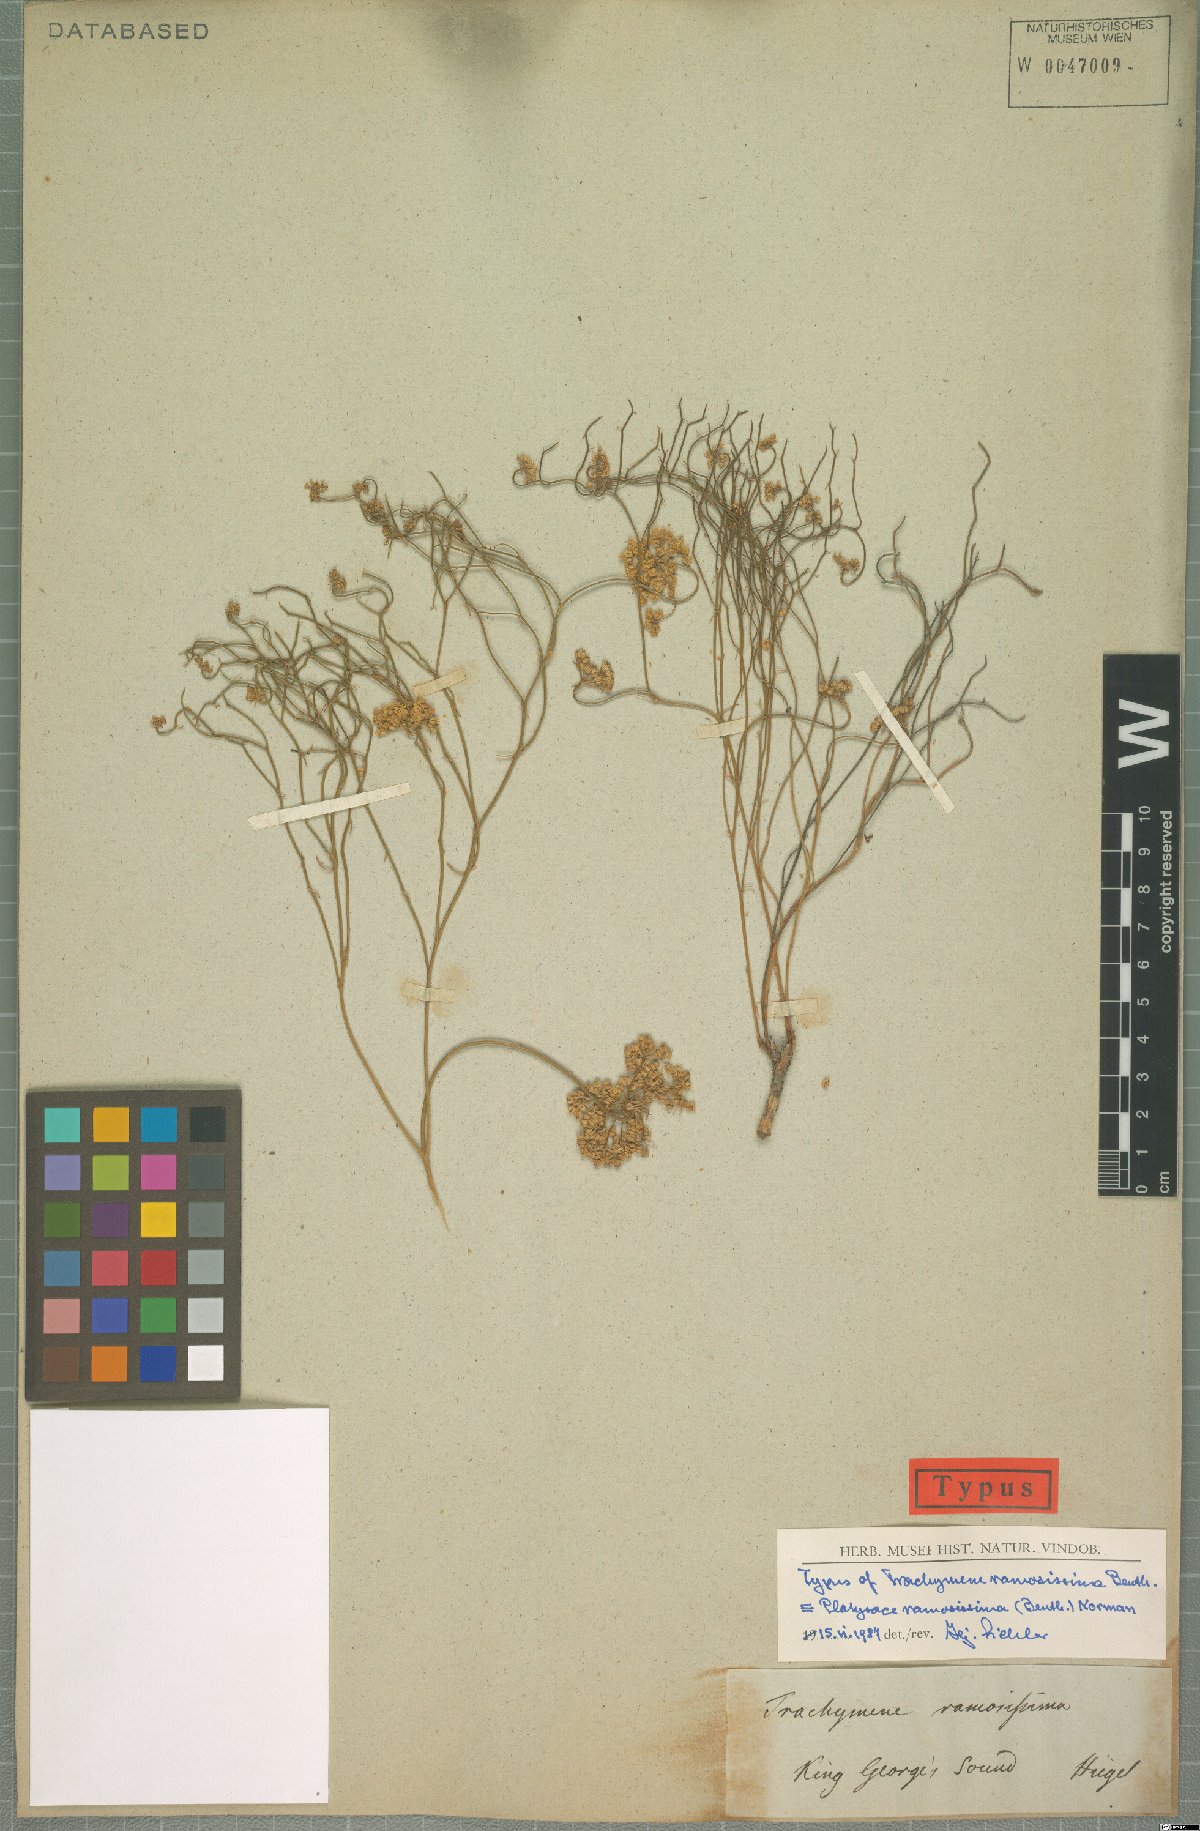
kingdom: Plantae
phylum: Tracheophyta
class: Magnoliopsida
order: Apiales
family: Apiaceae
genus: Platysace
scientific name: Platysace ramosissima
